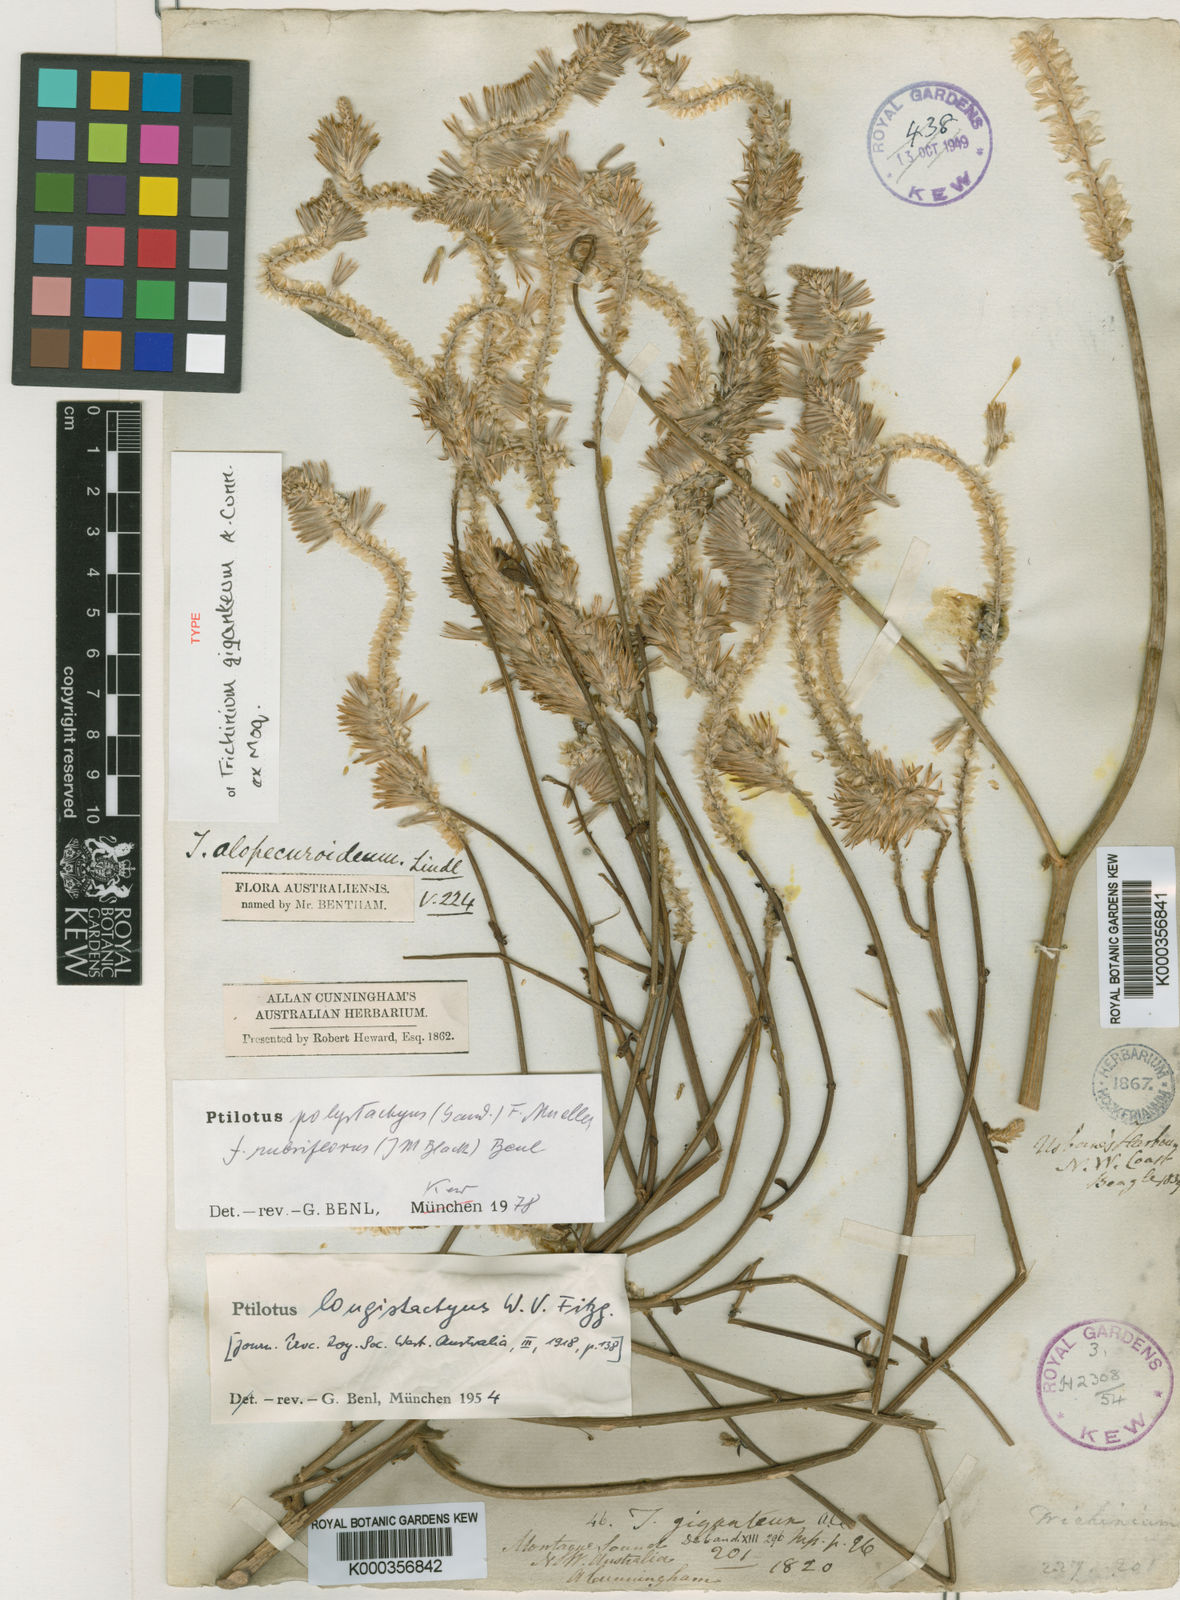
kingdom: Plantae
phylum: Tracheophyta
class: Magnoliopsida
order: Caryophyllales
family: Amaranthaceae
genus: Ptilotus
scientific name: Ptilotus polystachyus
